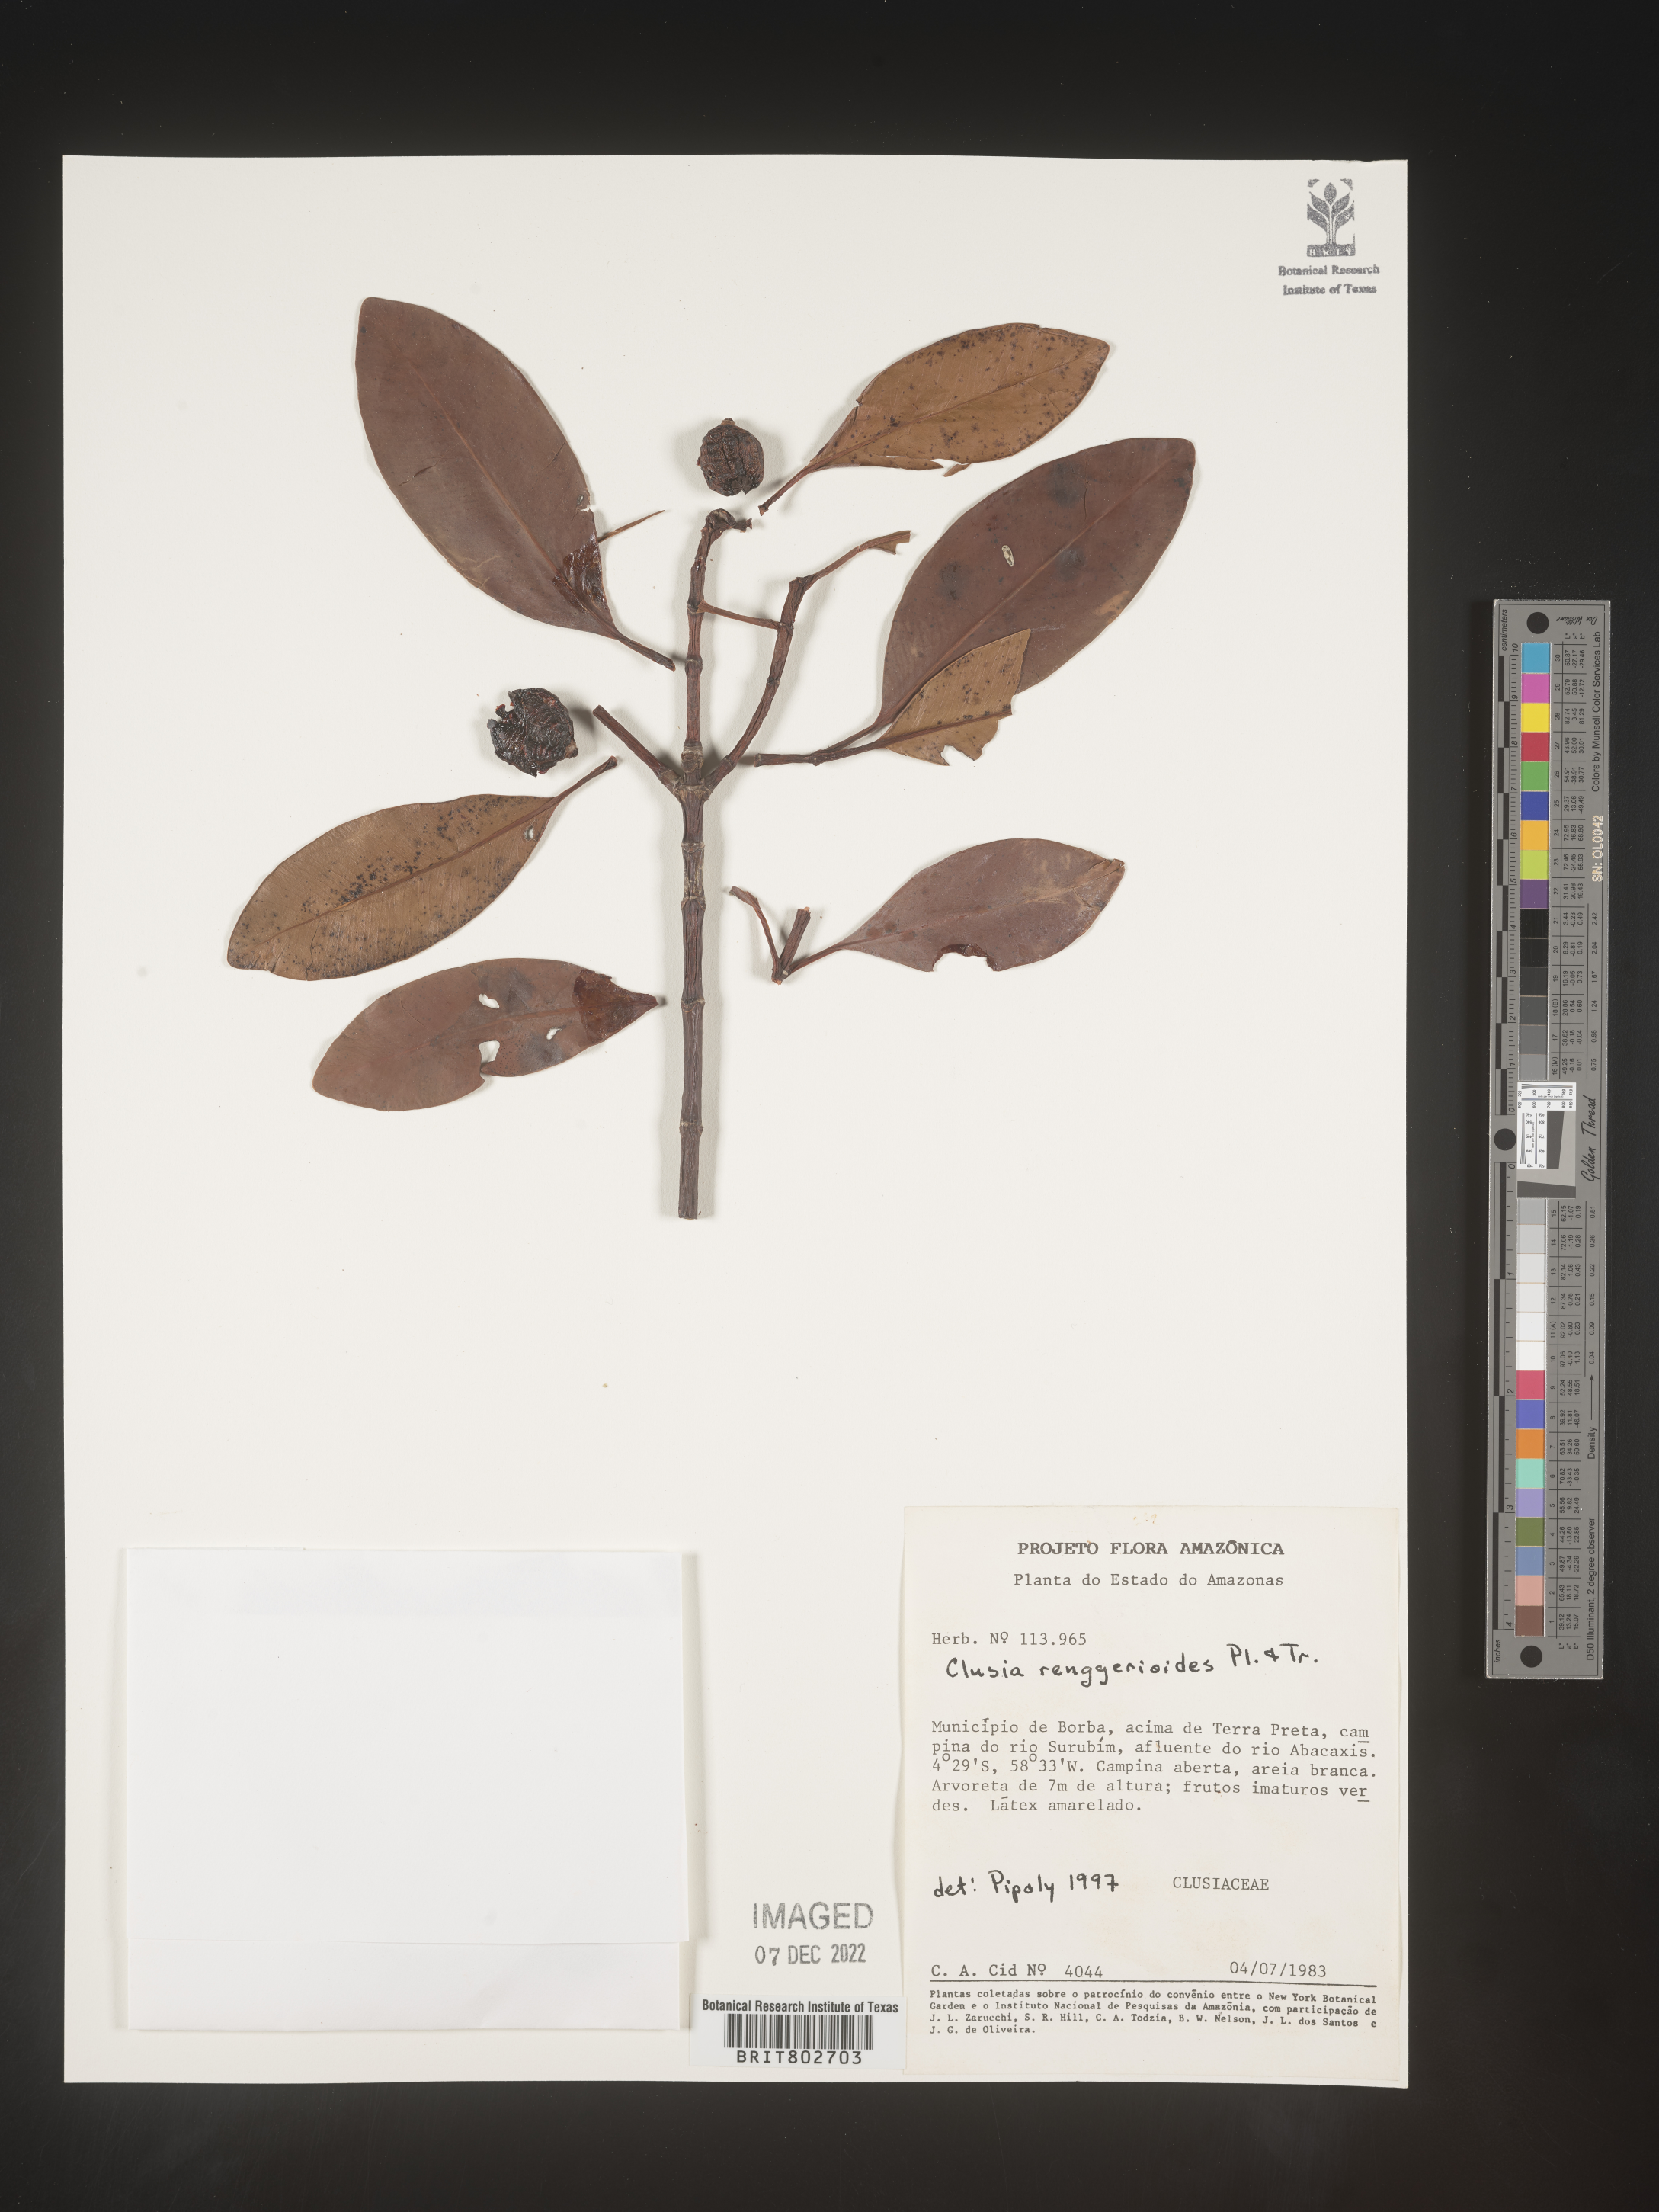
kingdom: Plantae
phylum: Tracheophyta
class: Magnoliopsida
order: Malpighiales
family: Clusiaceae
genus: Clusia
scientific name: Clusia renggerioides
